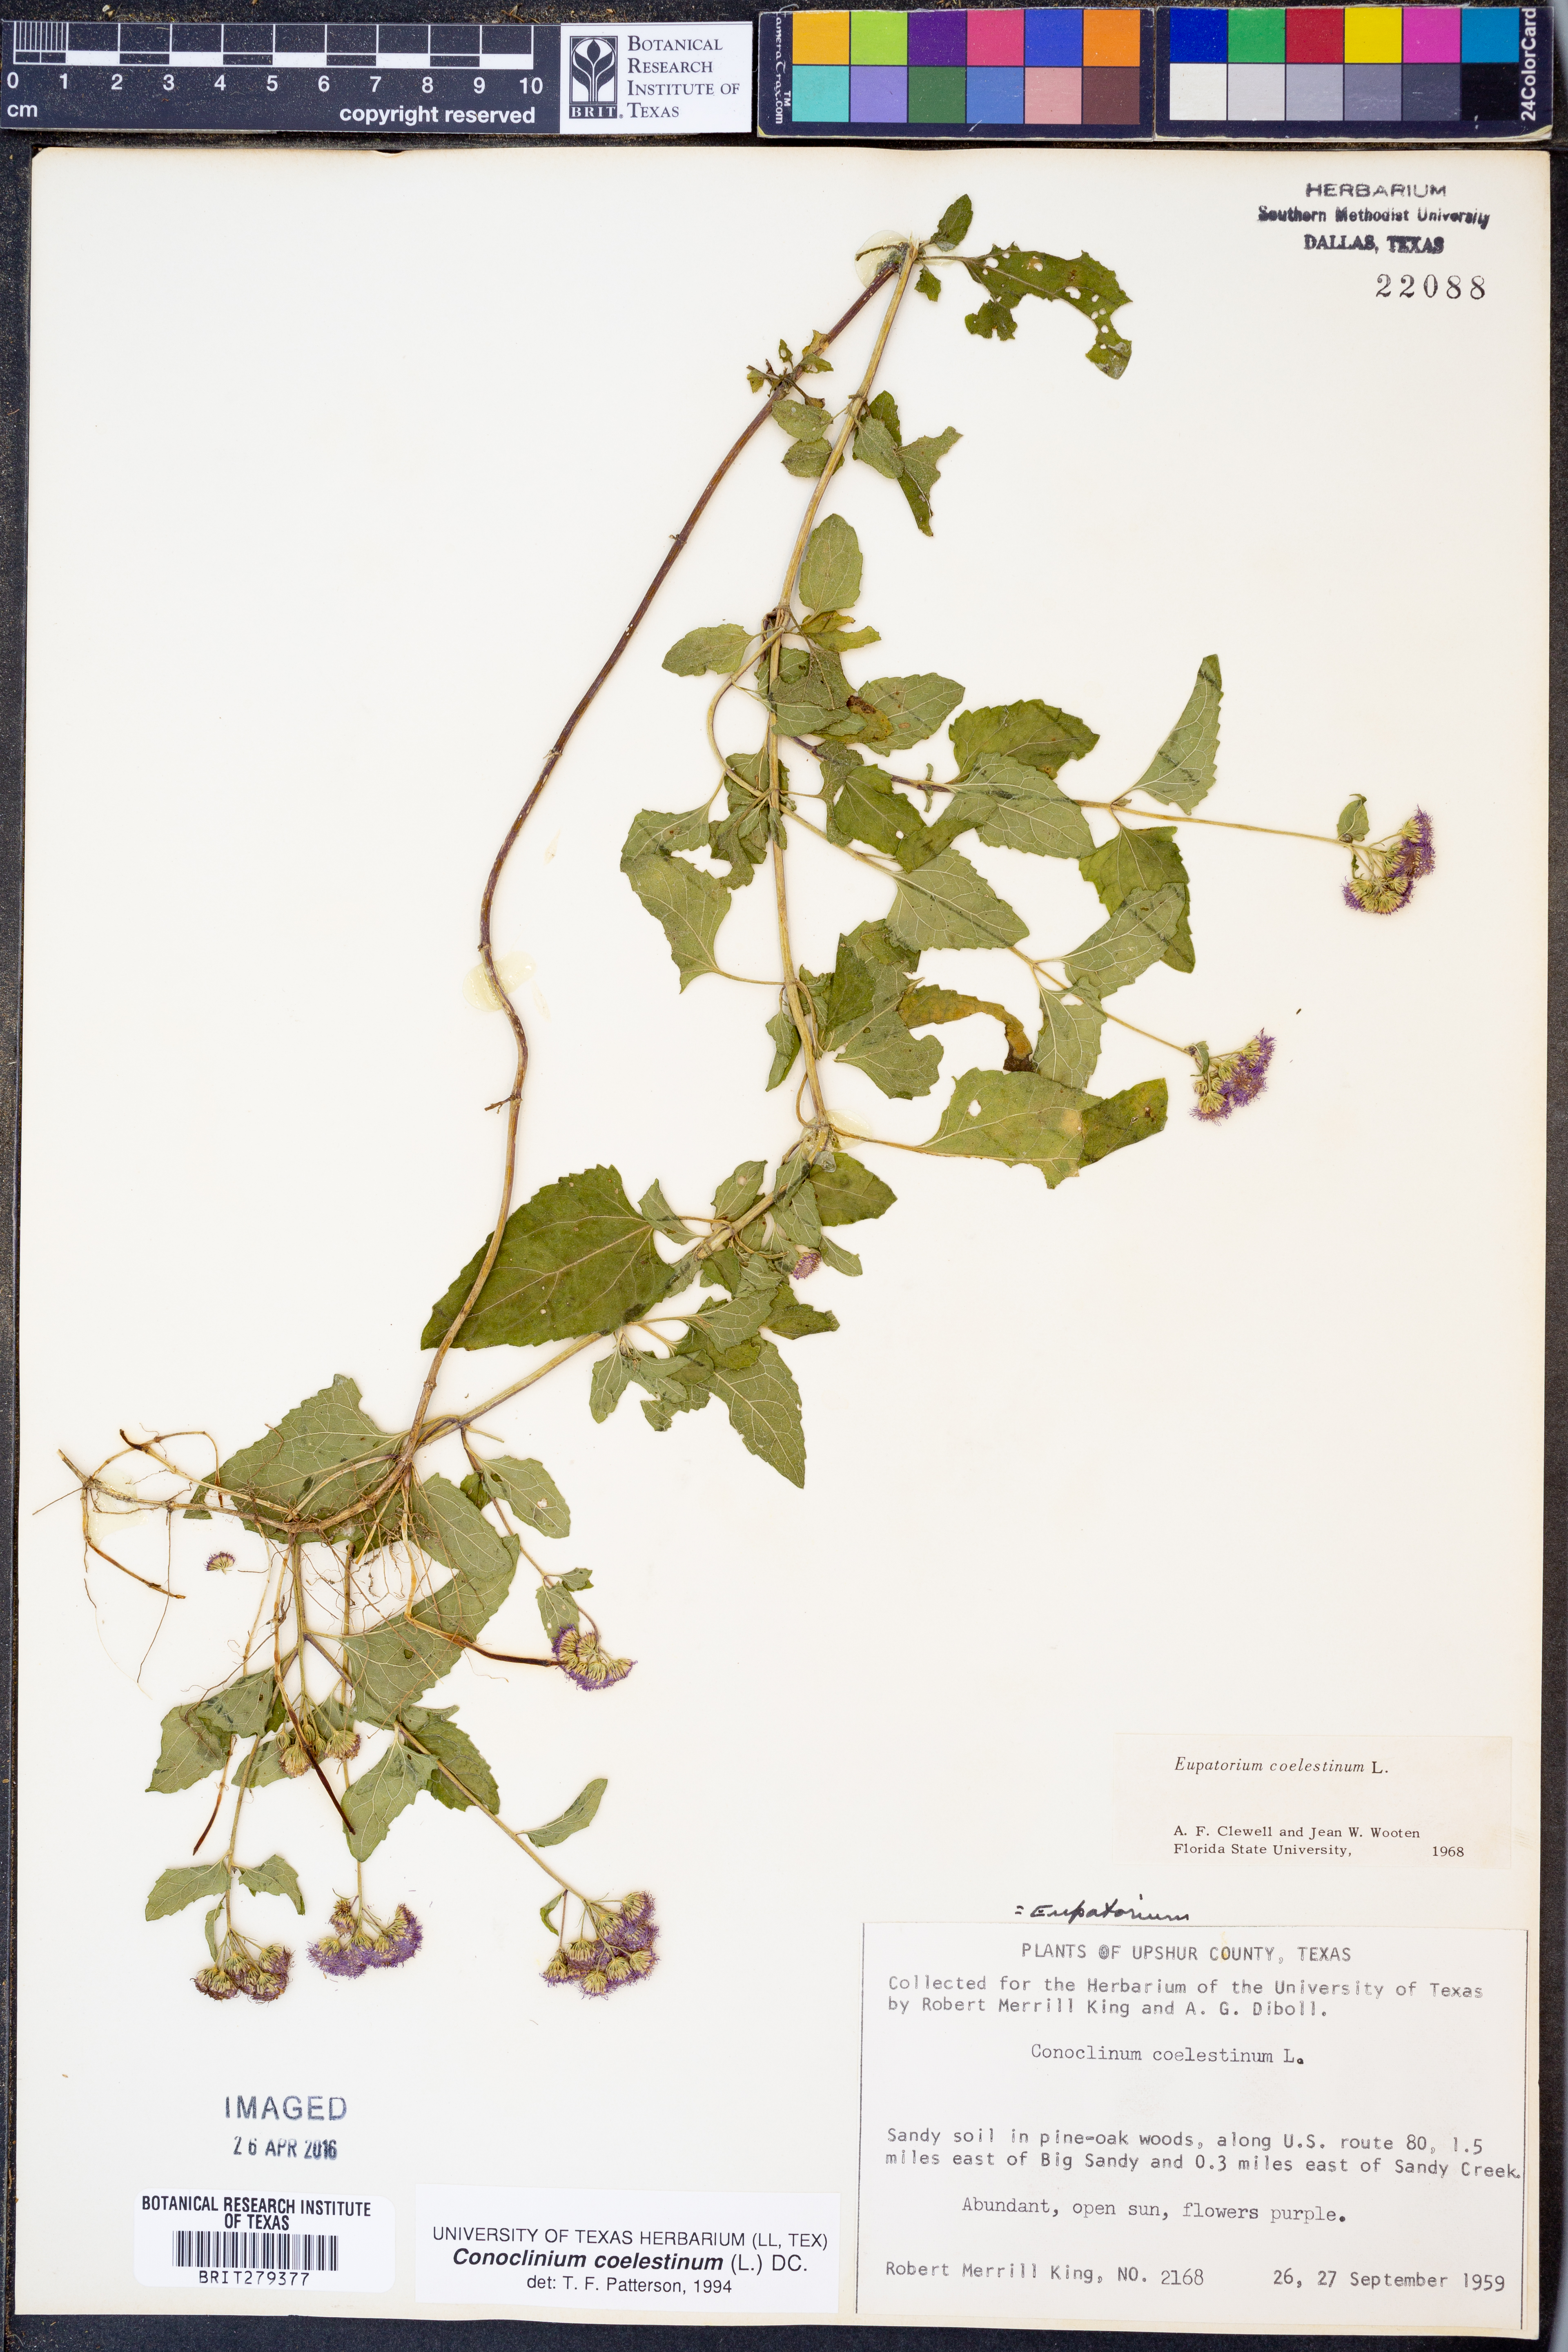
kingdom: Plantae
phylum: Tracheophyta
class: Magnoliopsida
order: Asterales
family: Asteraceae
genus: Conoclinium
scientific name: Conoclinium coelestinum
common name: Blue mistflower
